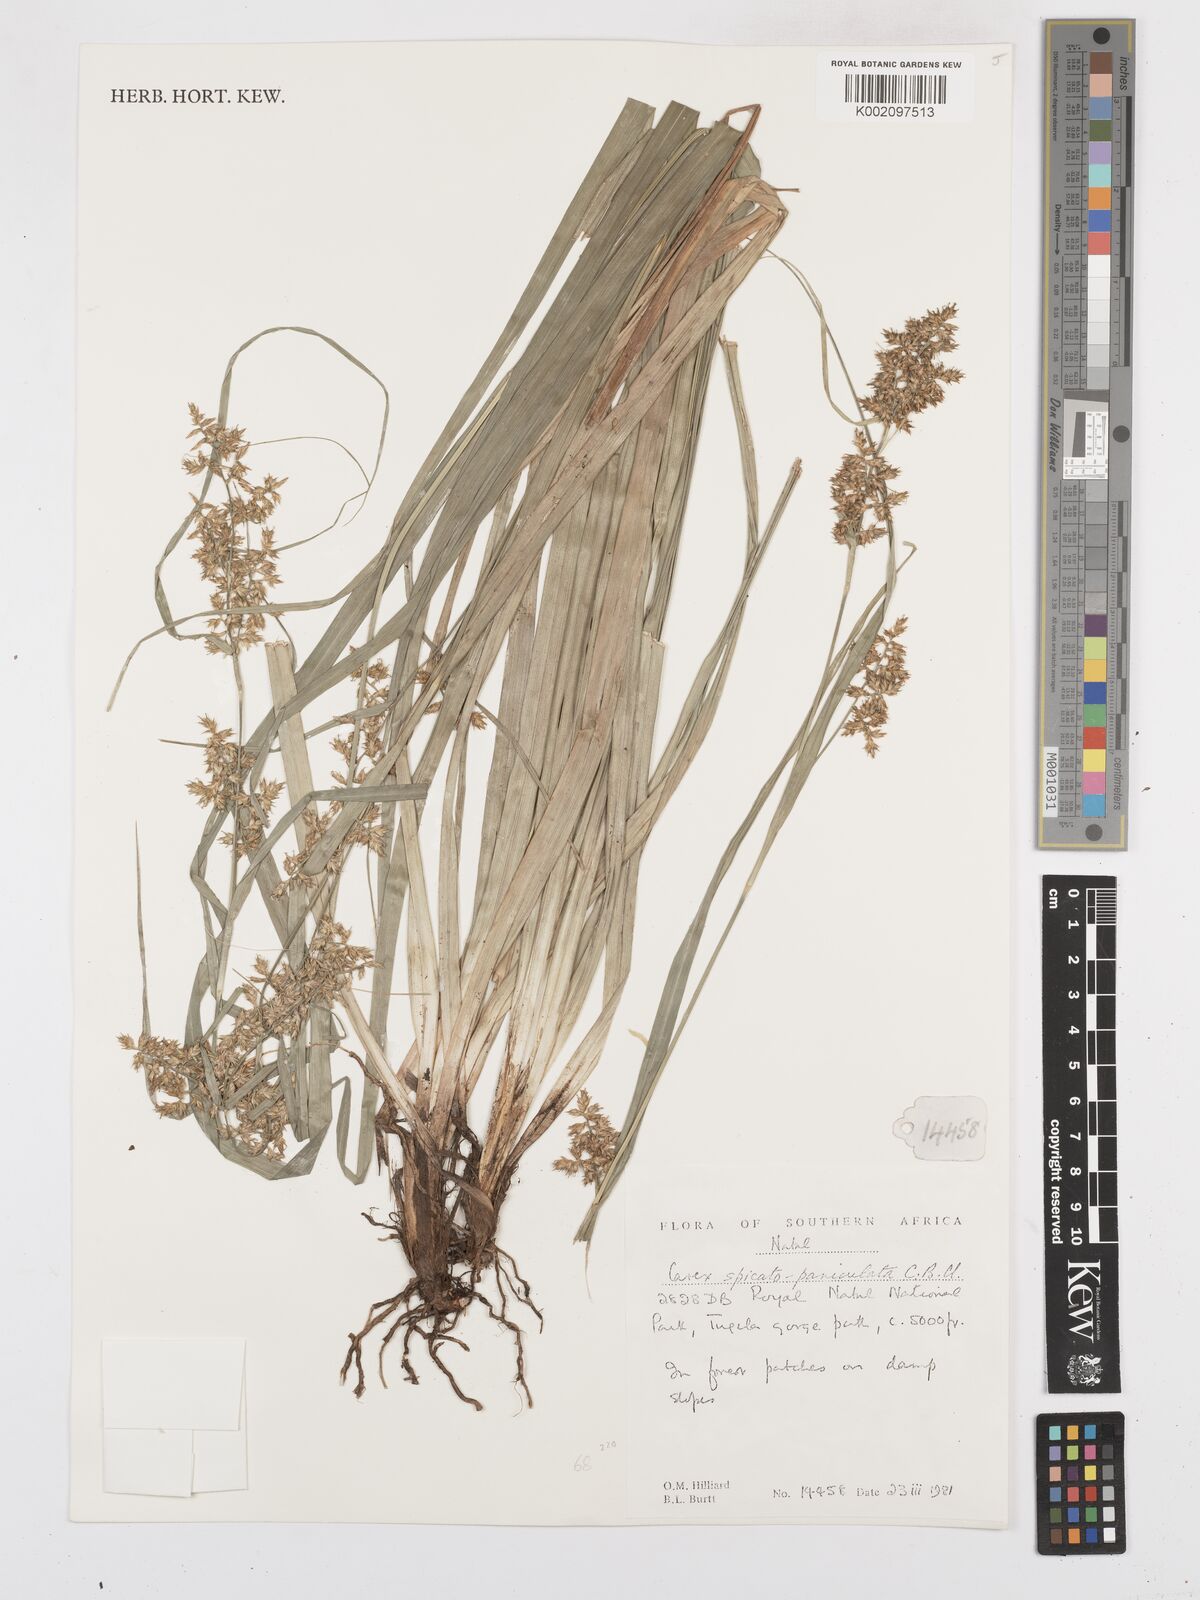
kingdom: Plantae
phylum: Tracheophyta
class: Liliopsida
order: Poales
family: Cyperaceae
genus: Carex
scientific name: Carex spicatopaniculata
